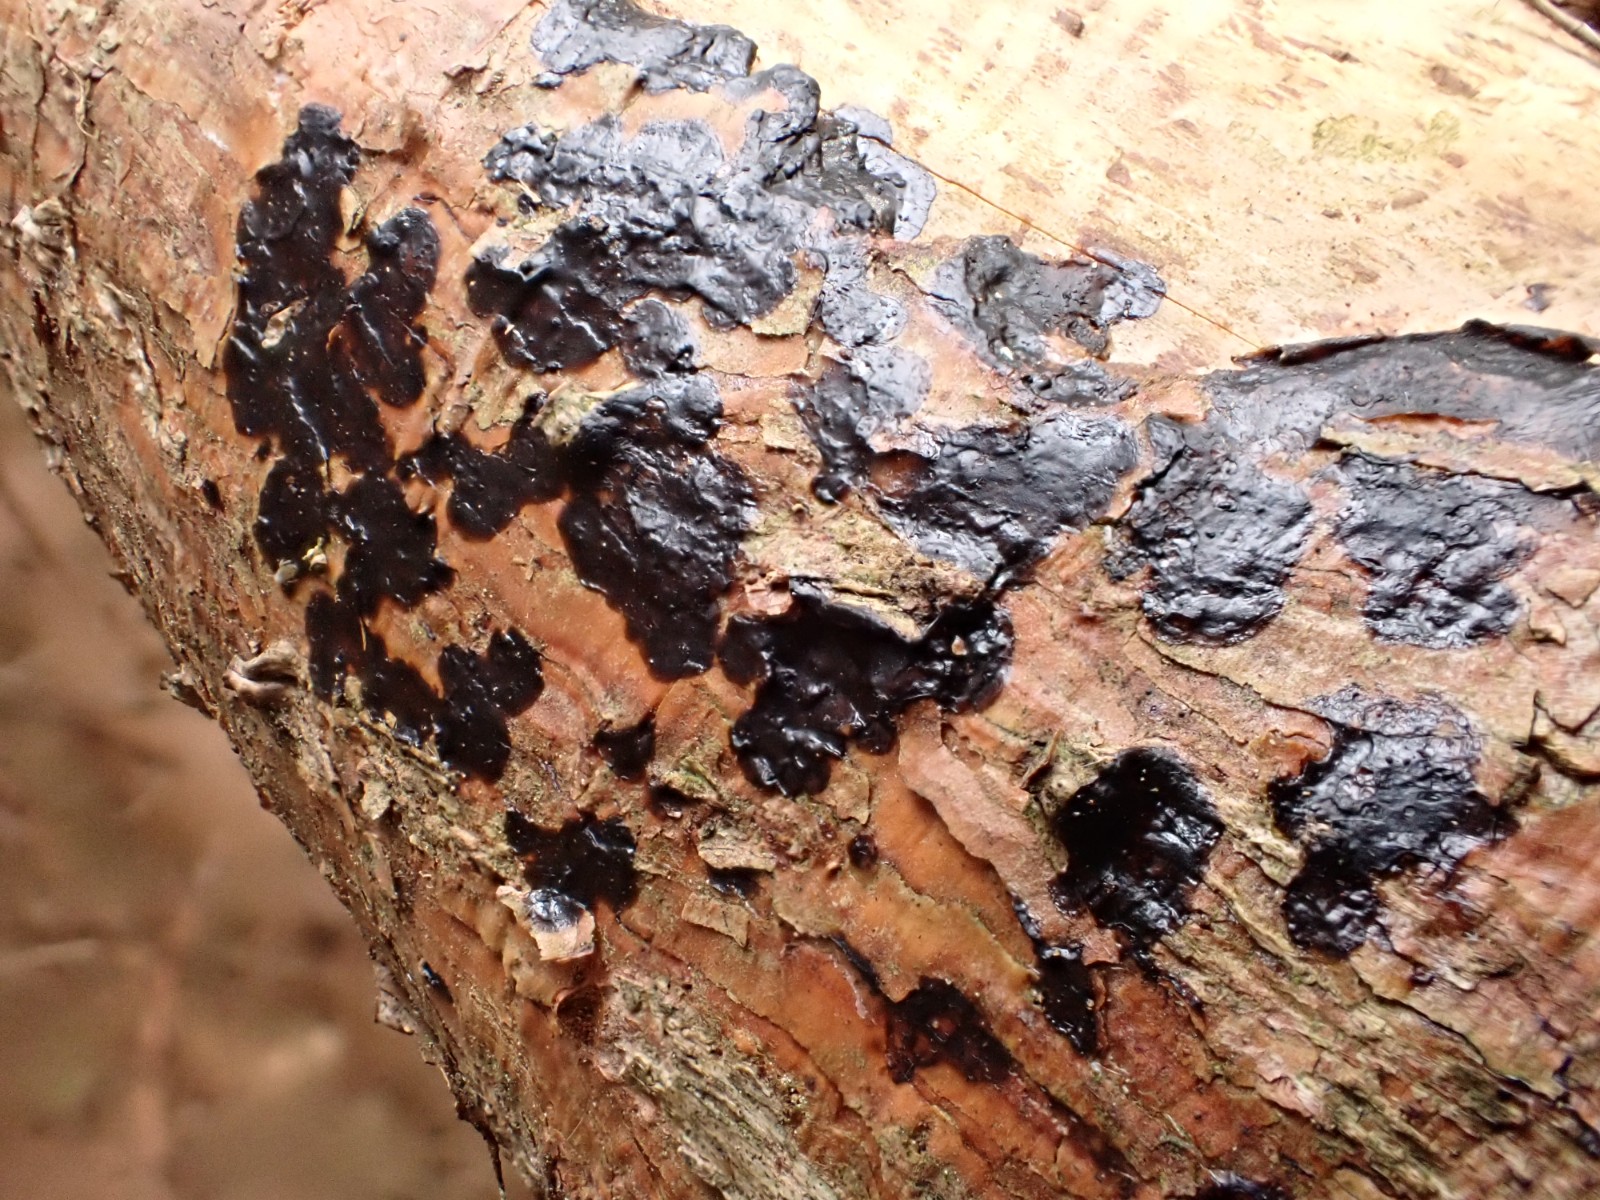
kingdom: Fungi
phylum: Basidiomycota
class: Agaricomycetes
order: Auriculariales
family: Auriculariaceae
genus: Exidia
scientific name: Exidia pithya
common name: gran-bævretop
